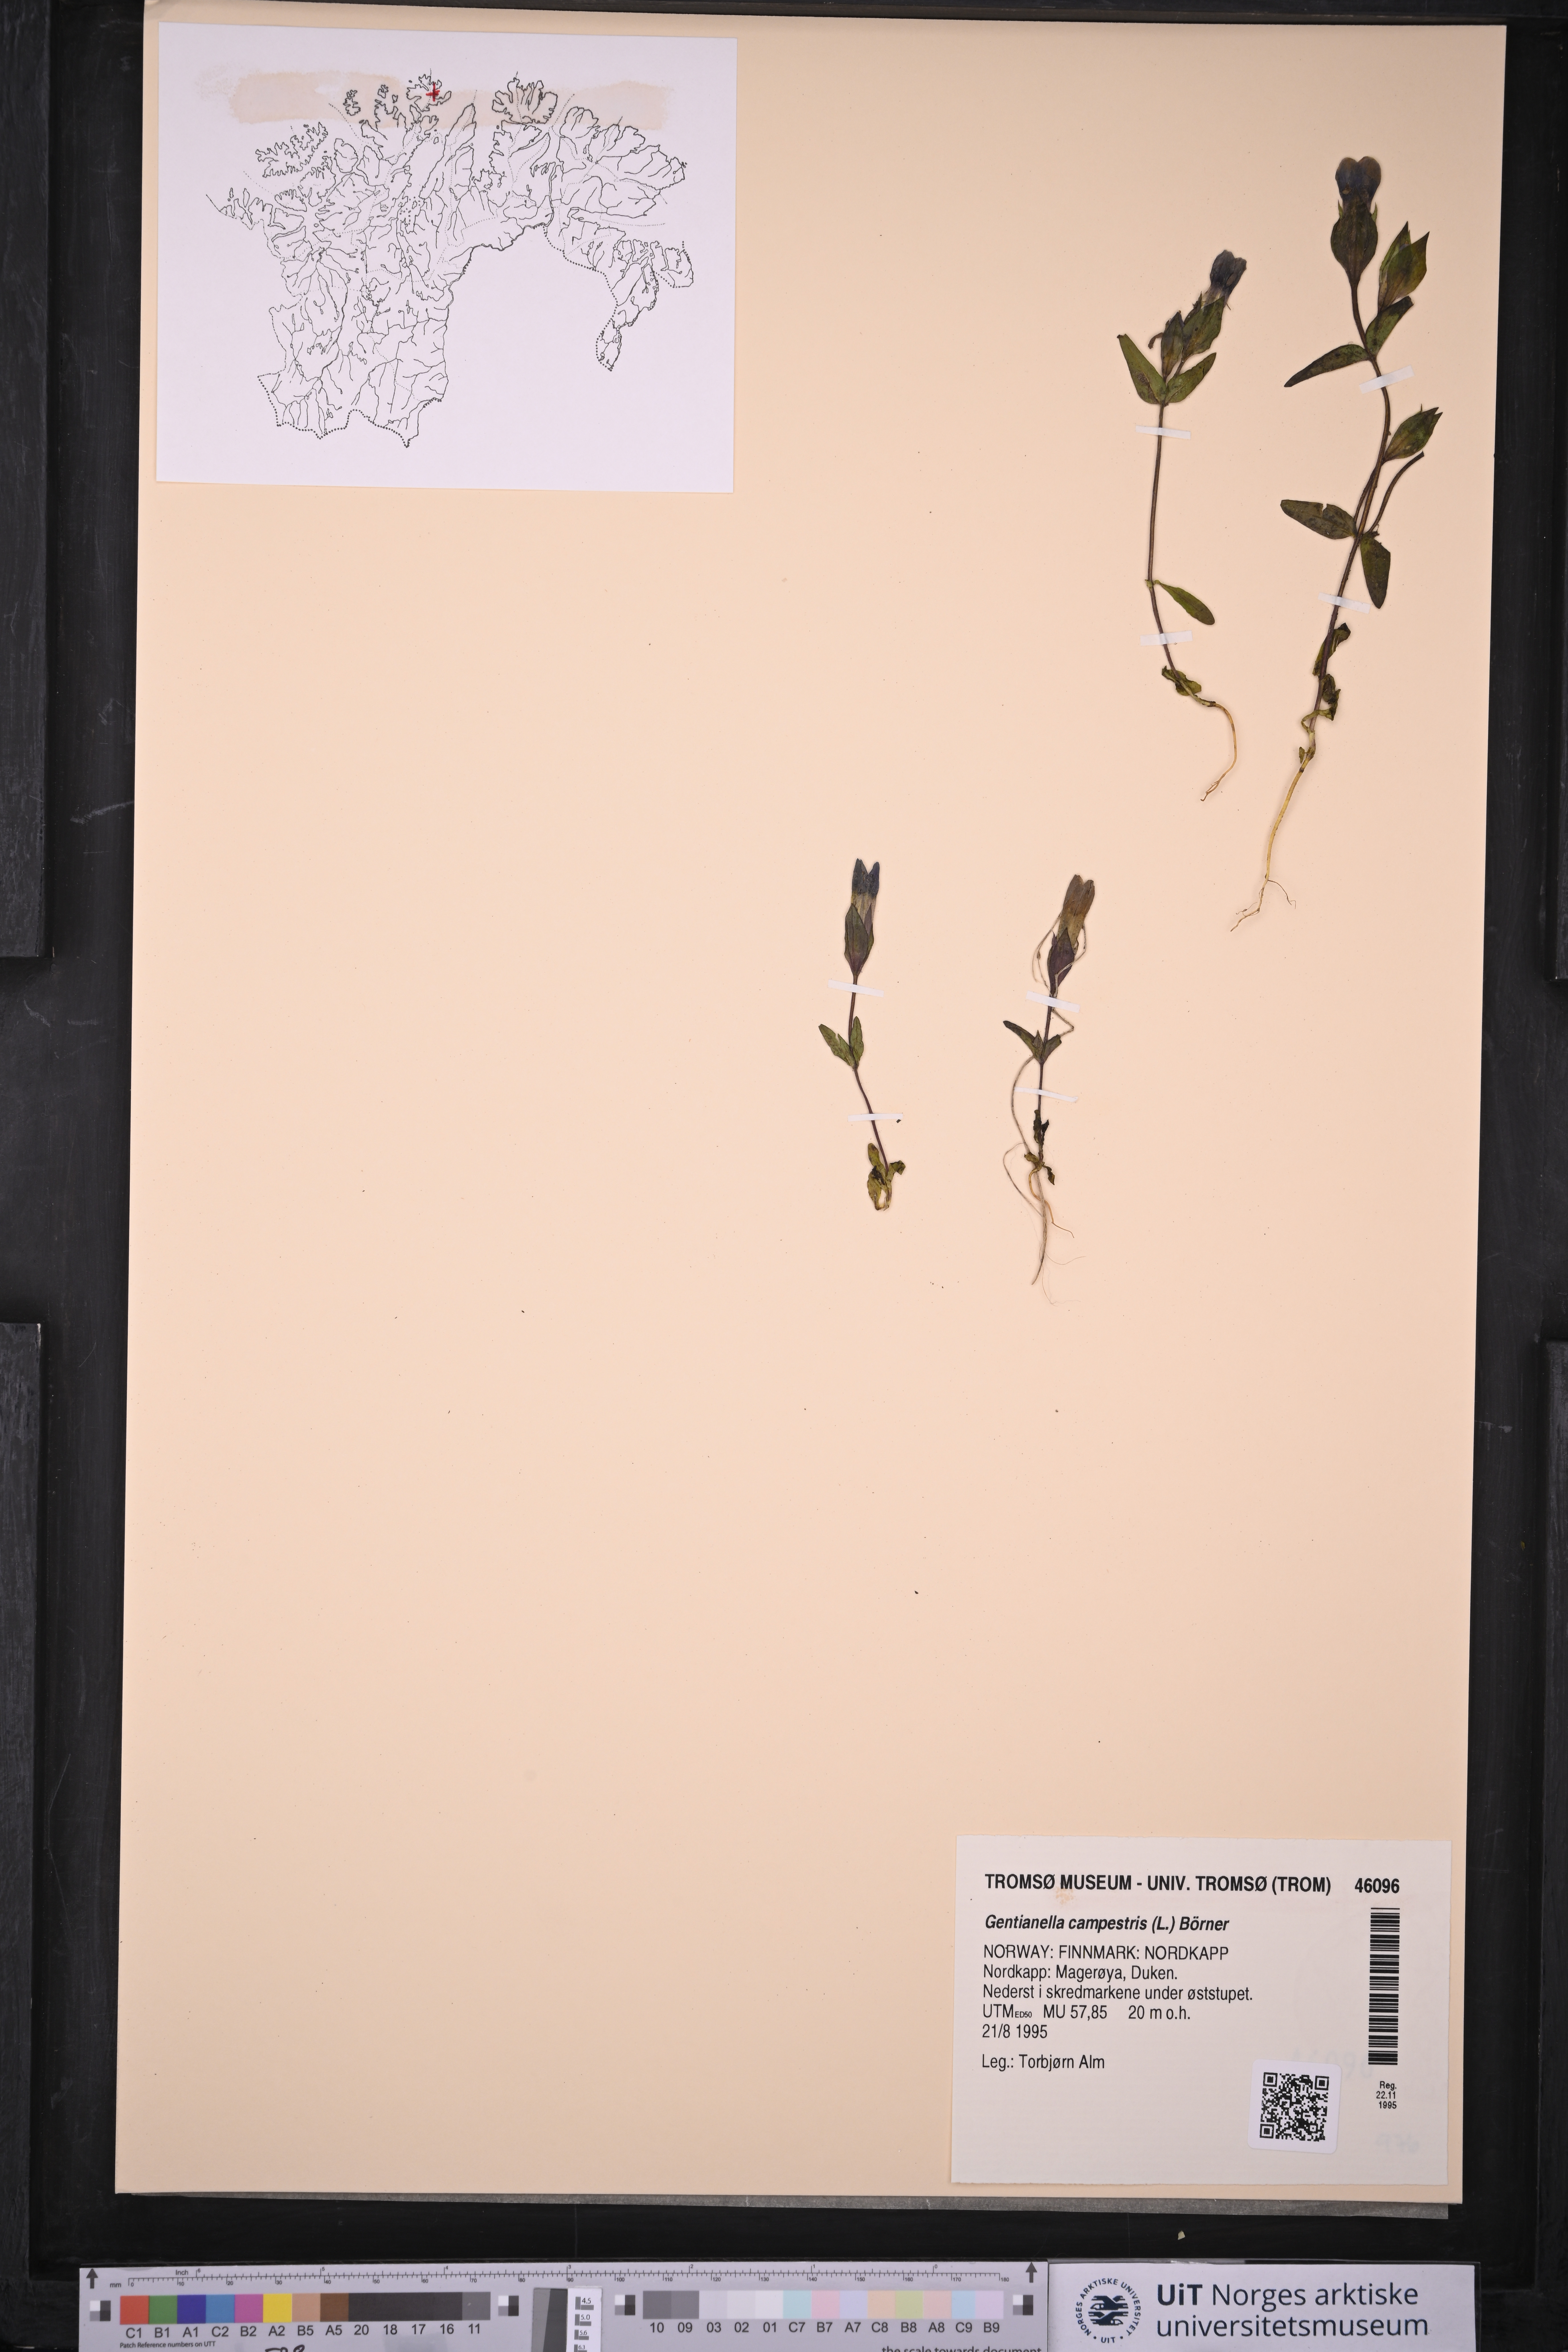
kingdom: Plantae
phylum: Tracheophyta
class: Magnoliopsida
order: Gentianales
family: Gentianaceae
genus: Gentianella
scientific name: Gentianella campestris
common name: Field gentian
